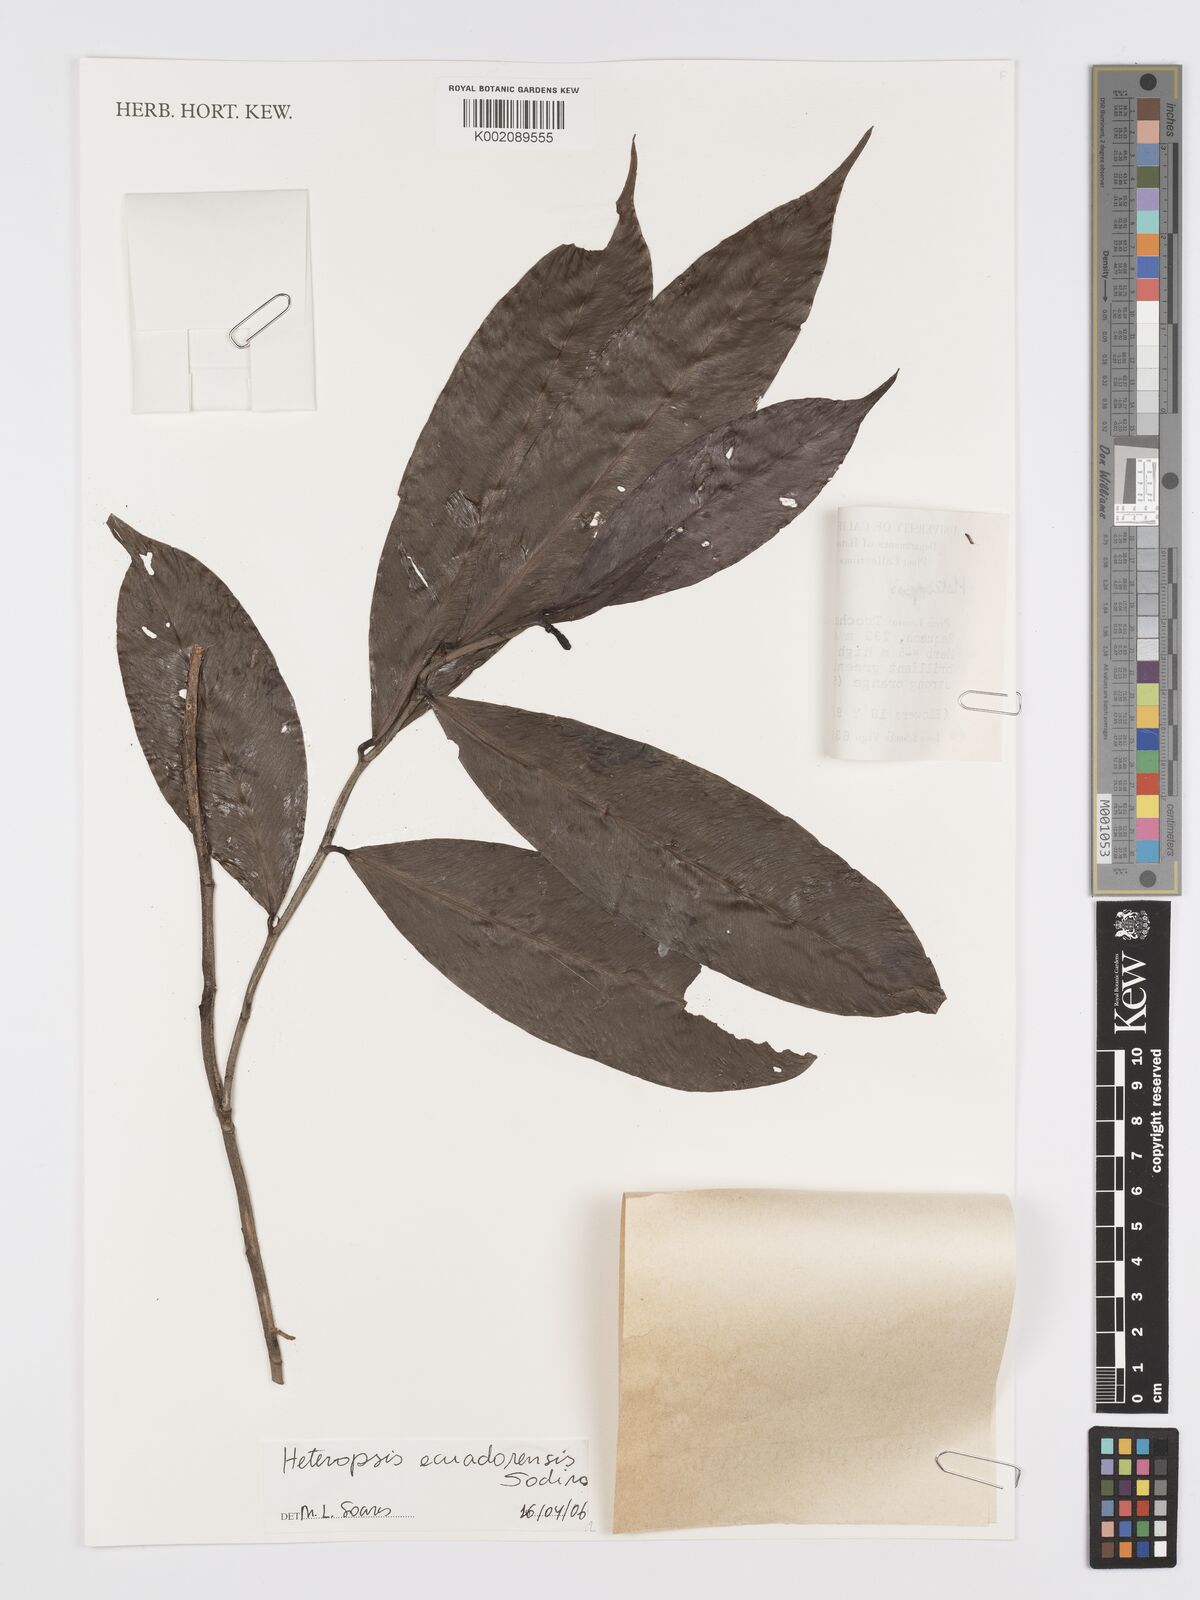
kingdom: Plantae
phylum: Tracheophyta
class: Liliopsida
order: Alismatales
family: Araceae
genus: Heteropsis
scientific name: Heteropsis ecuadorensis
